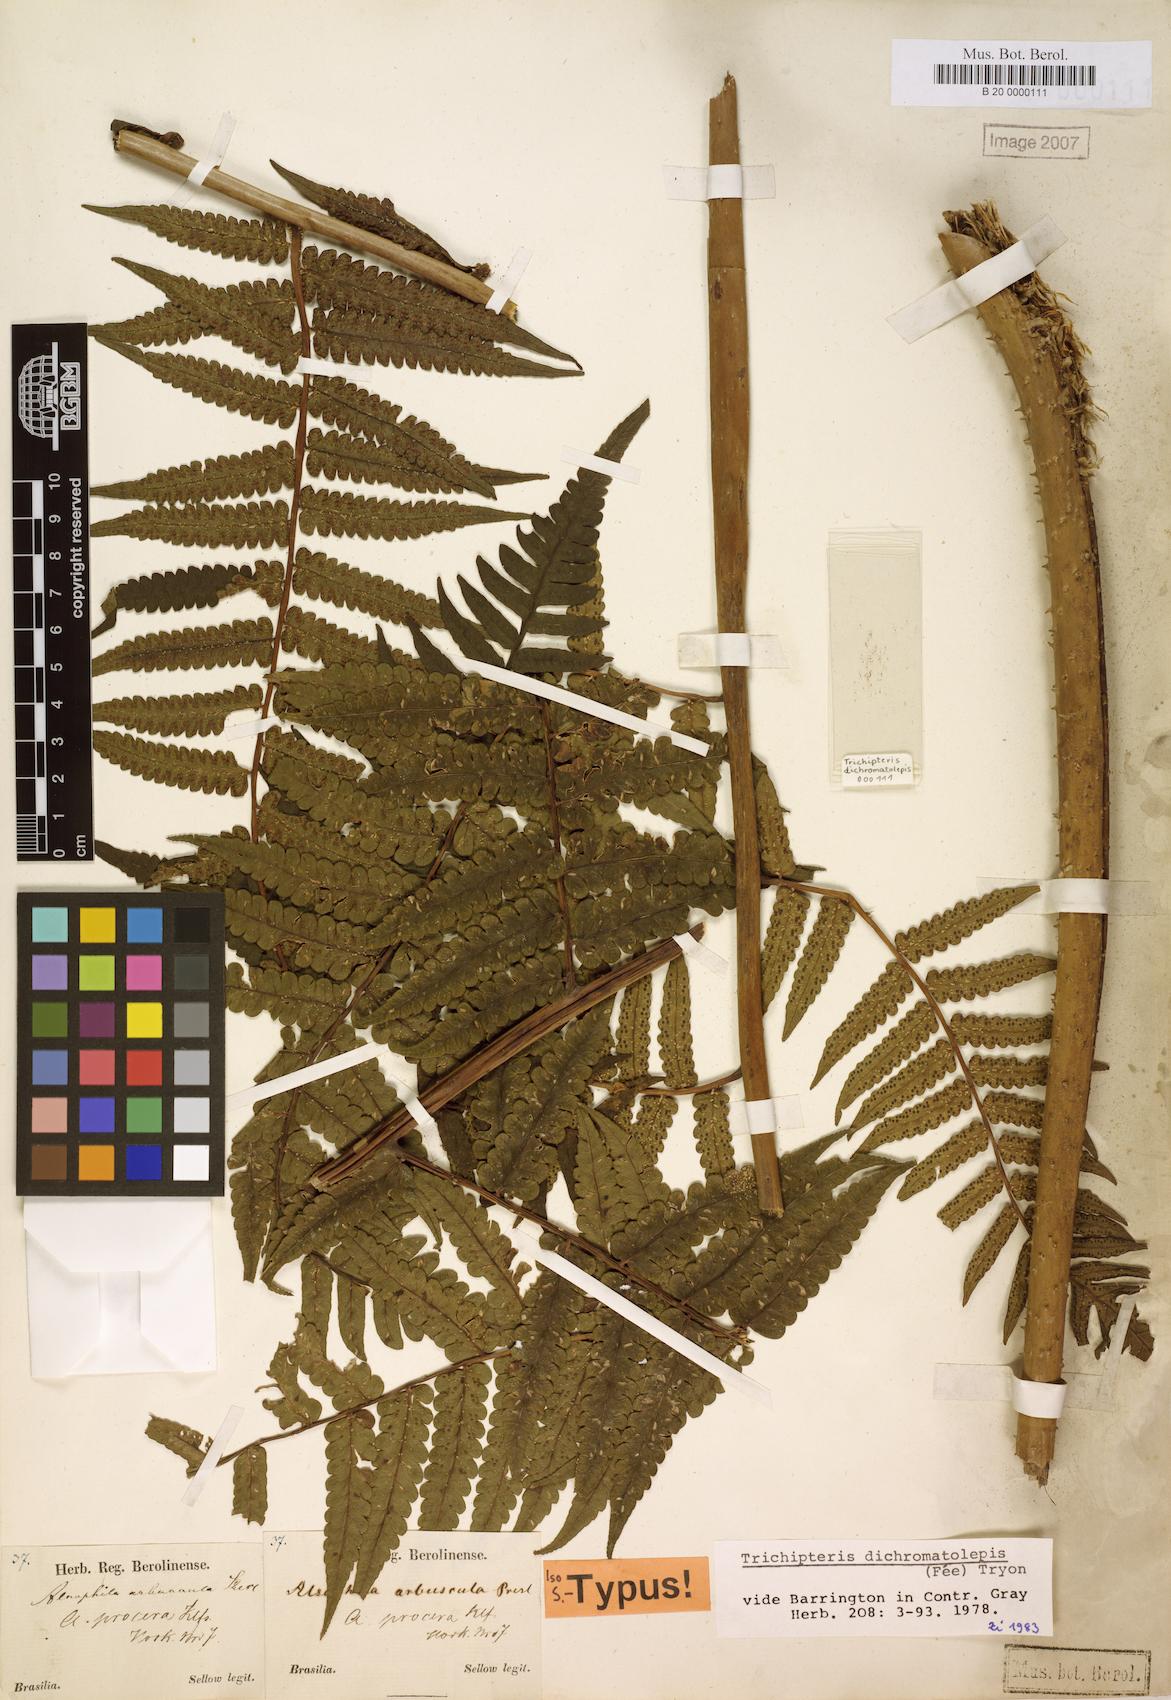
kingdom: Plantae
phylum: Tracheophyta
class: Polypodiopsida
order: Cyatheales
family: Cyatheaceae
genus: Cyathea
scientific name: Cyathea dichromatolepis
